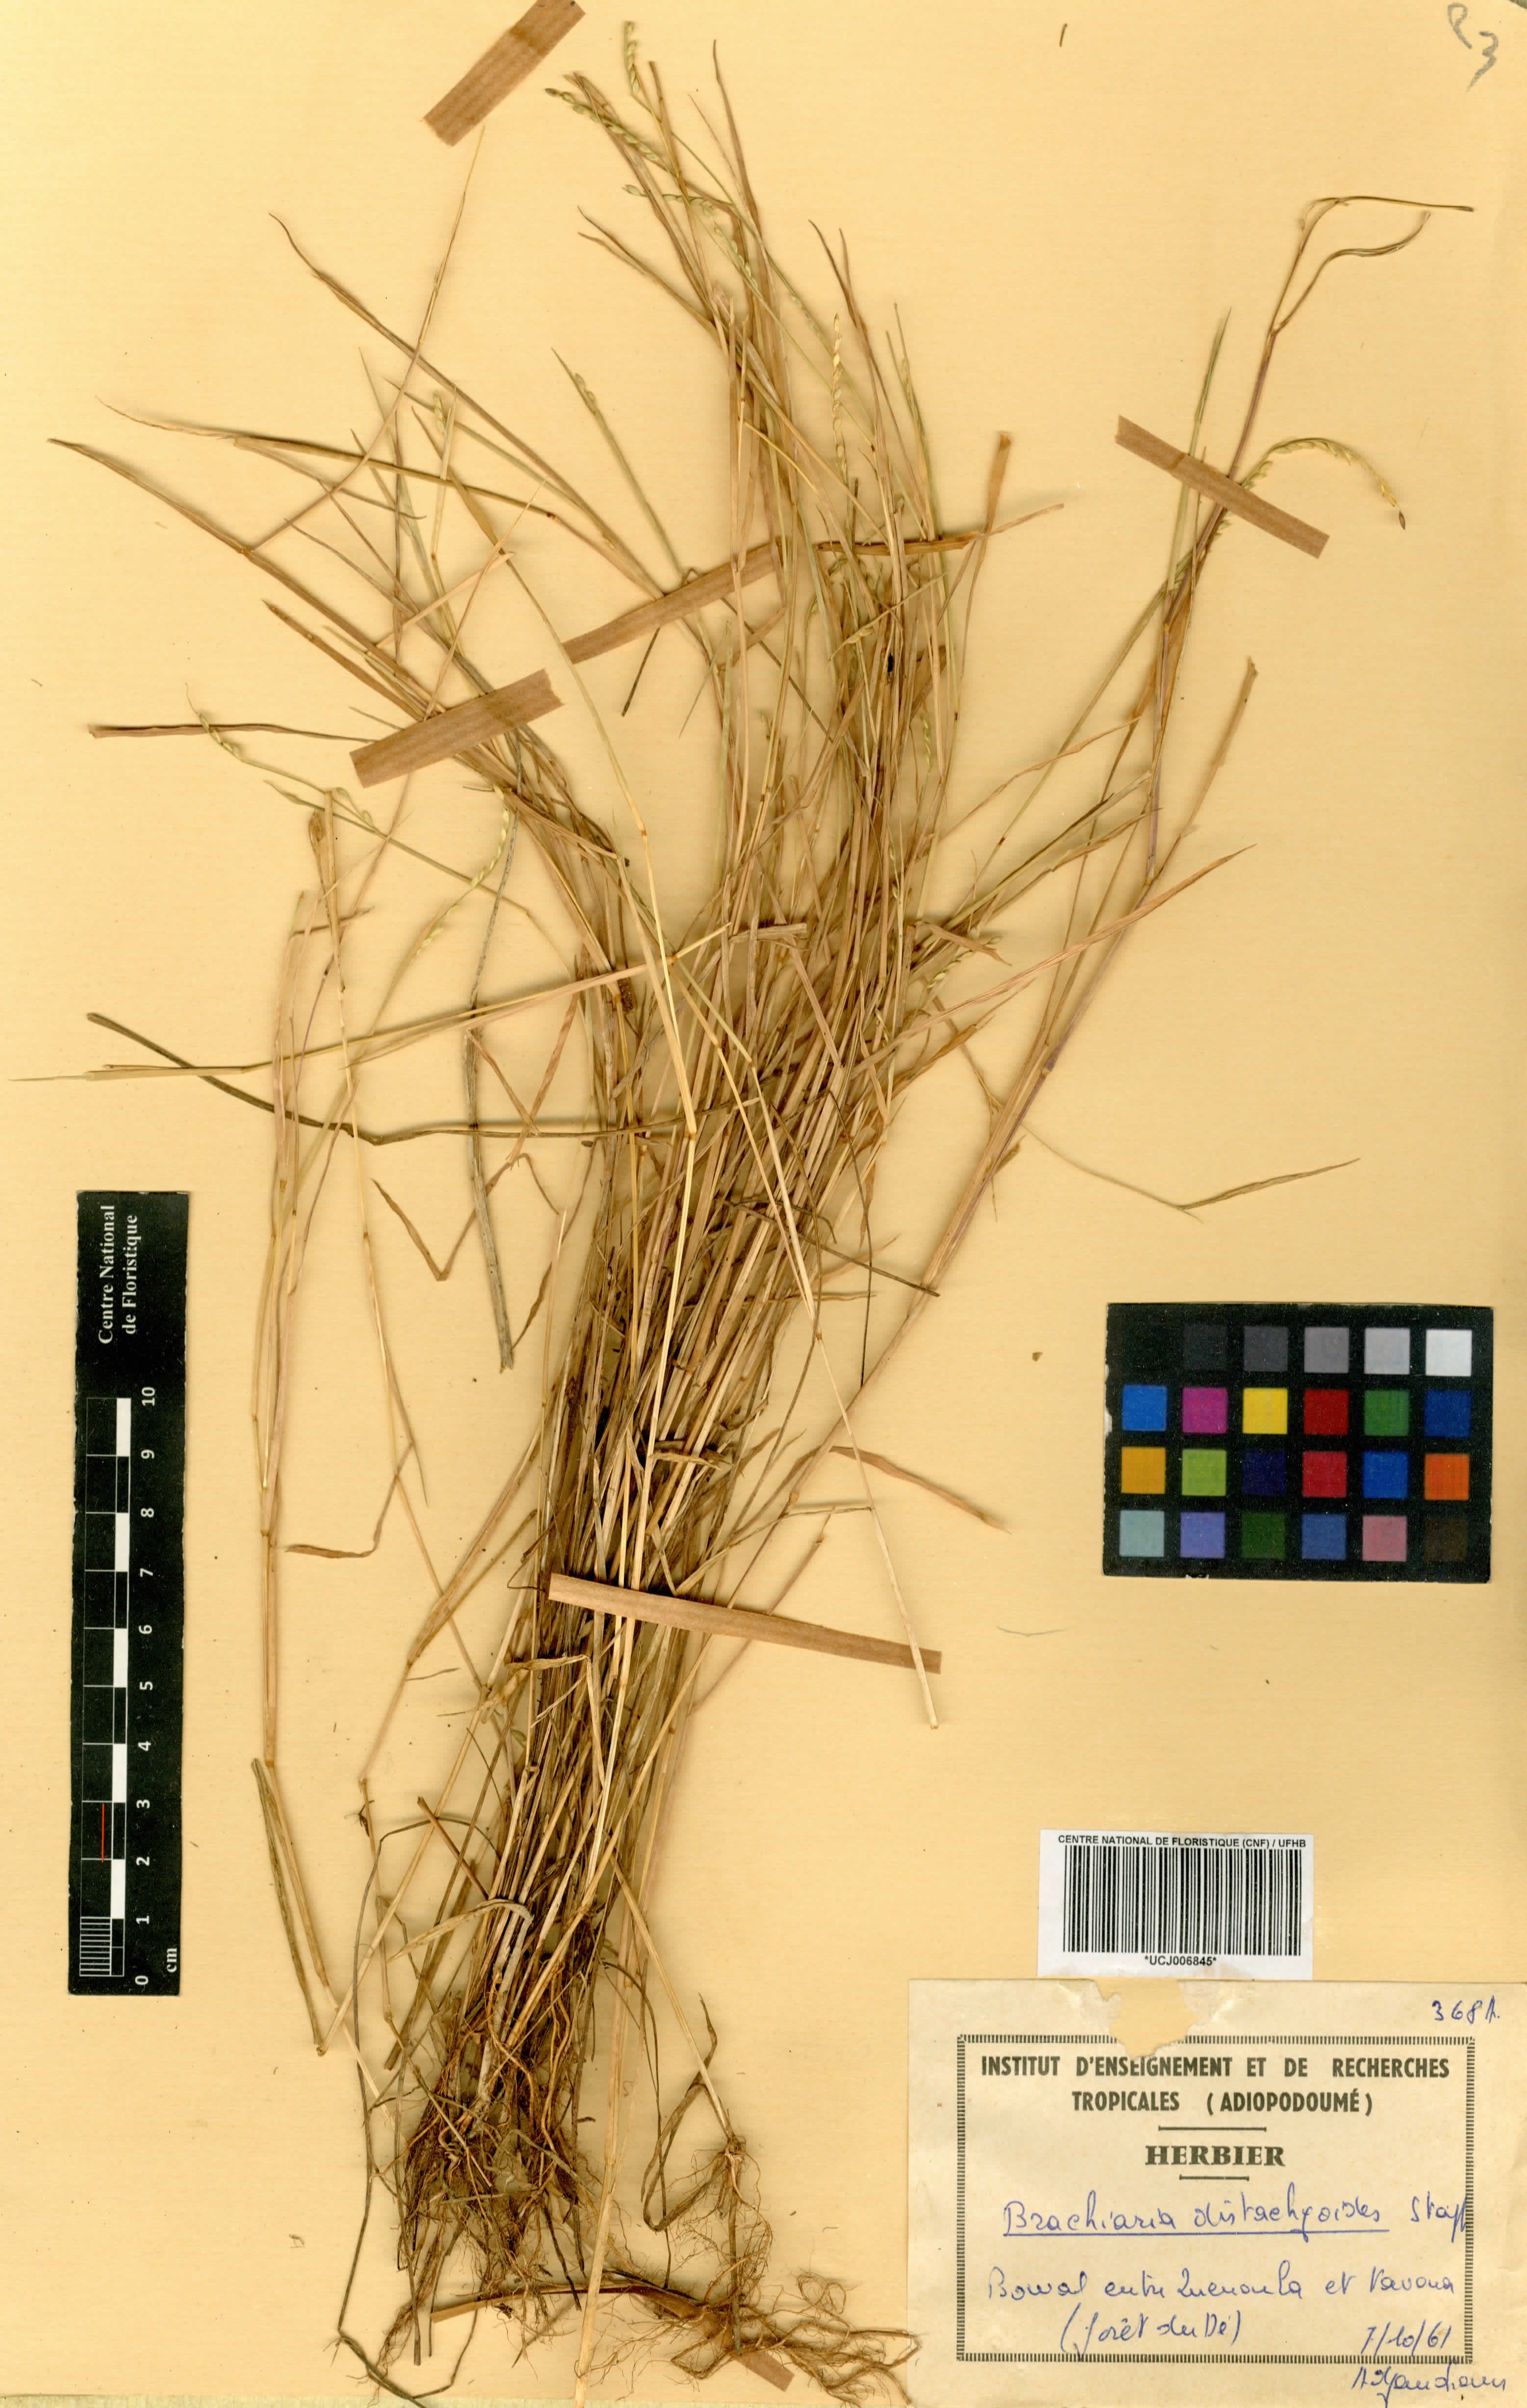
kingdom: Plantae
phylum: Tracheophyta
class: Liliopsida
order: Poales
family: Poaceae
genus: Urochloa
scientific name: Urochloa villosa
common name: Hairy signalgrass
